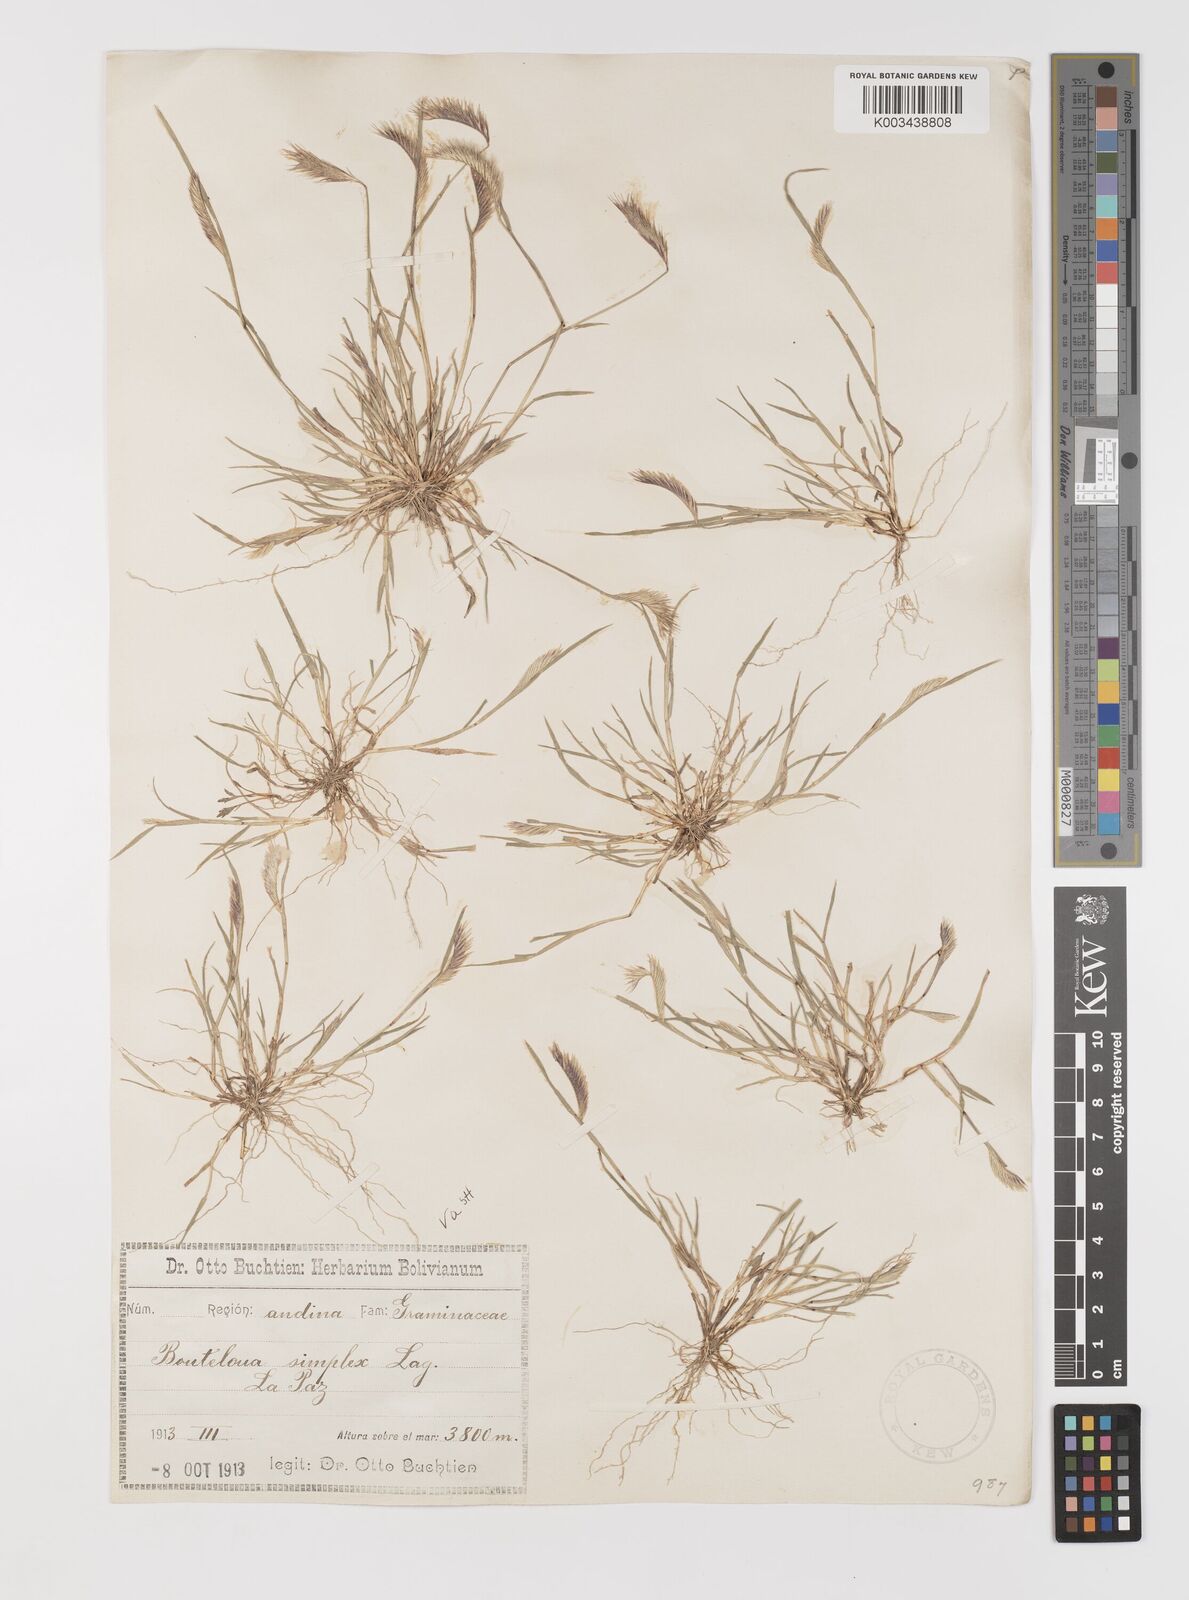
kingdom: Plantae
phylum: Tracheophyta
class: Liliopsida
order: Poales
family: Poaceae
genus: Bouteloua
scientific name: Bouteloua simplex
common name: Mat grama
